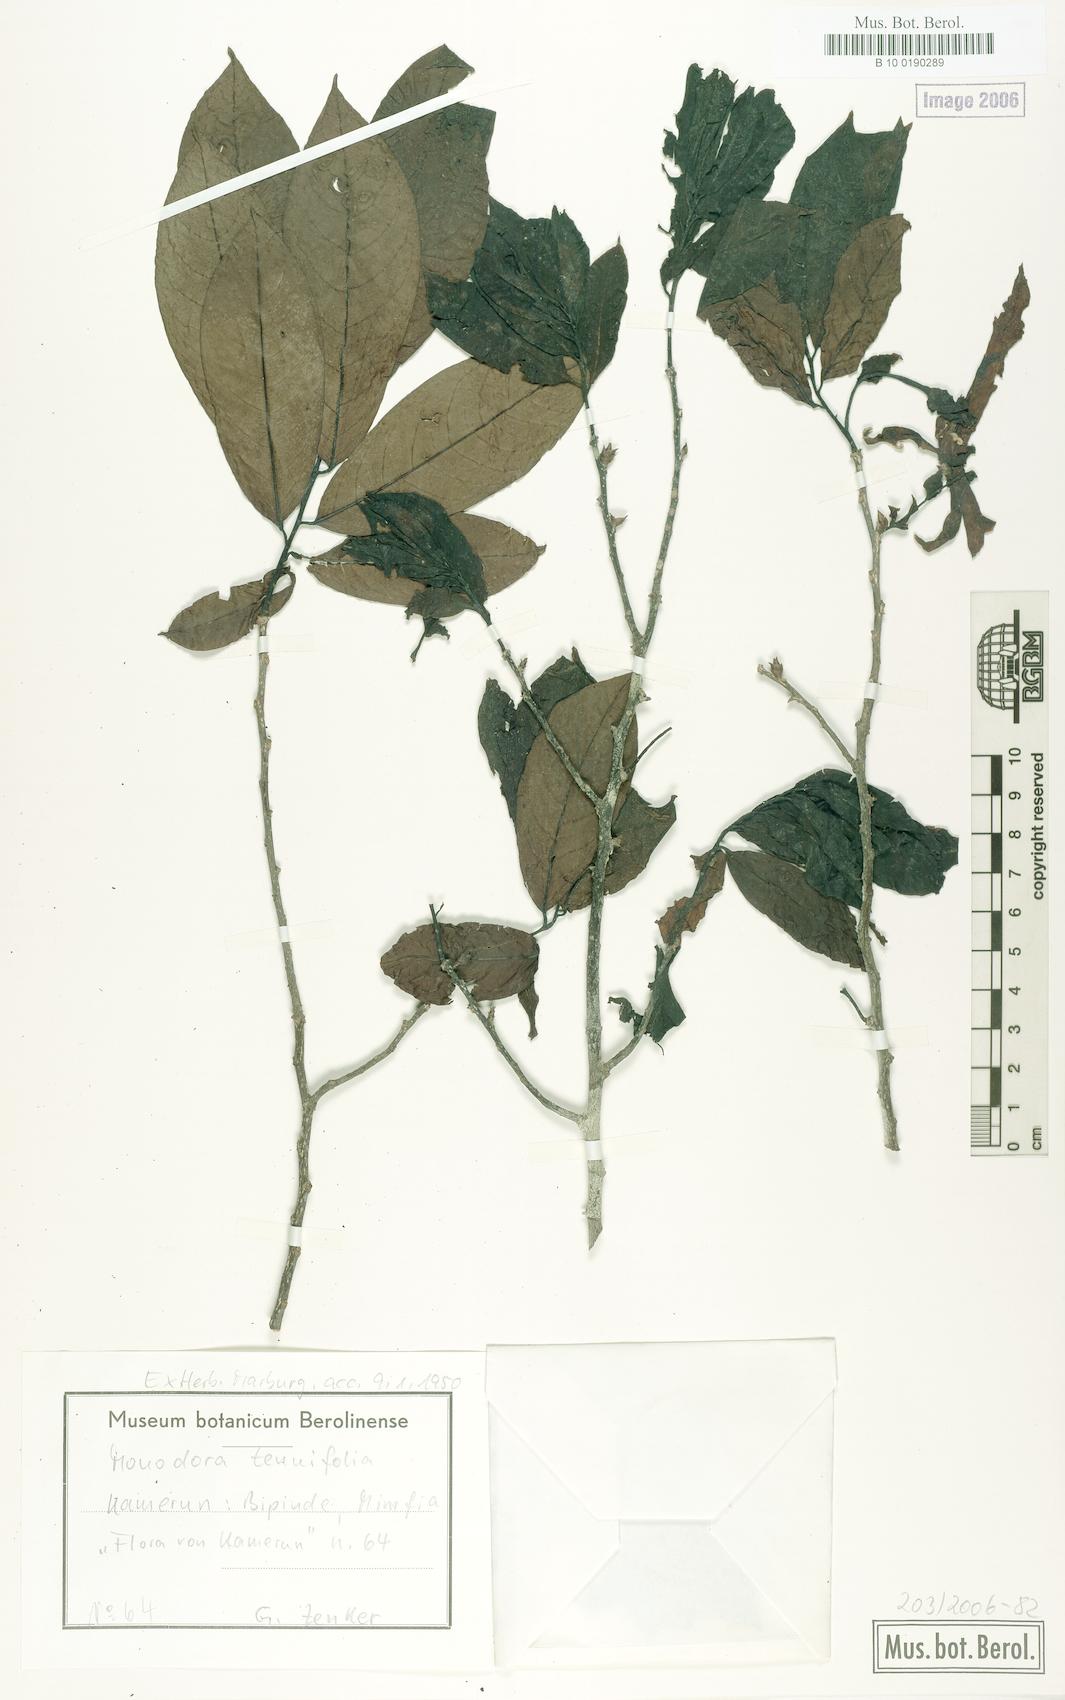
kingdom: Plantae
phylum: Tracheophyta
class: Magnoliopsida
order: Magnoliales
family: Annonaceae
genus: Monodora
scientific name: Monodora tenuifolia
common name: Orchidtree
